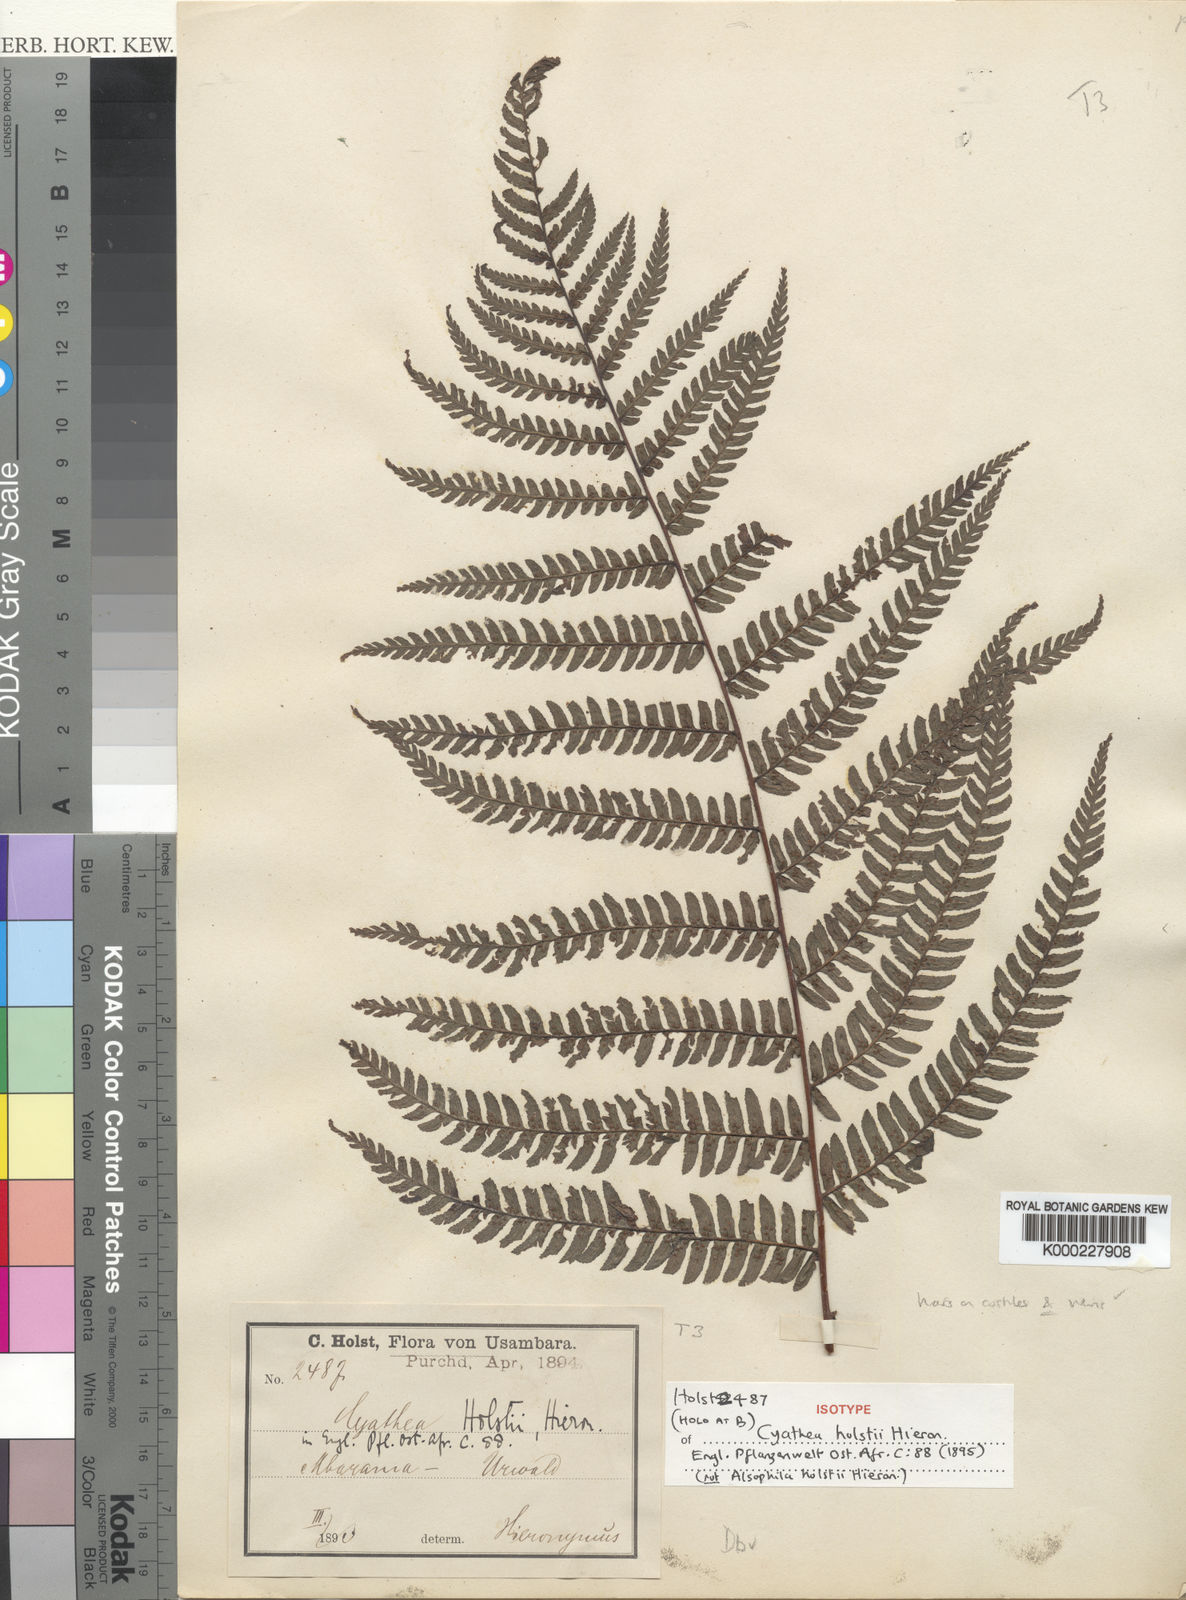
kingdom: Plantae
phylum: Tracheophyta
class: Polypodiopsida
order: Cyatheales
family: Cyatheaceae
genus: Alsophila
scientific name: Alsophila mossambicensis
